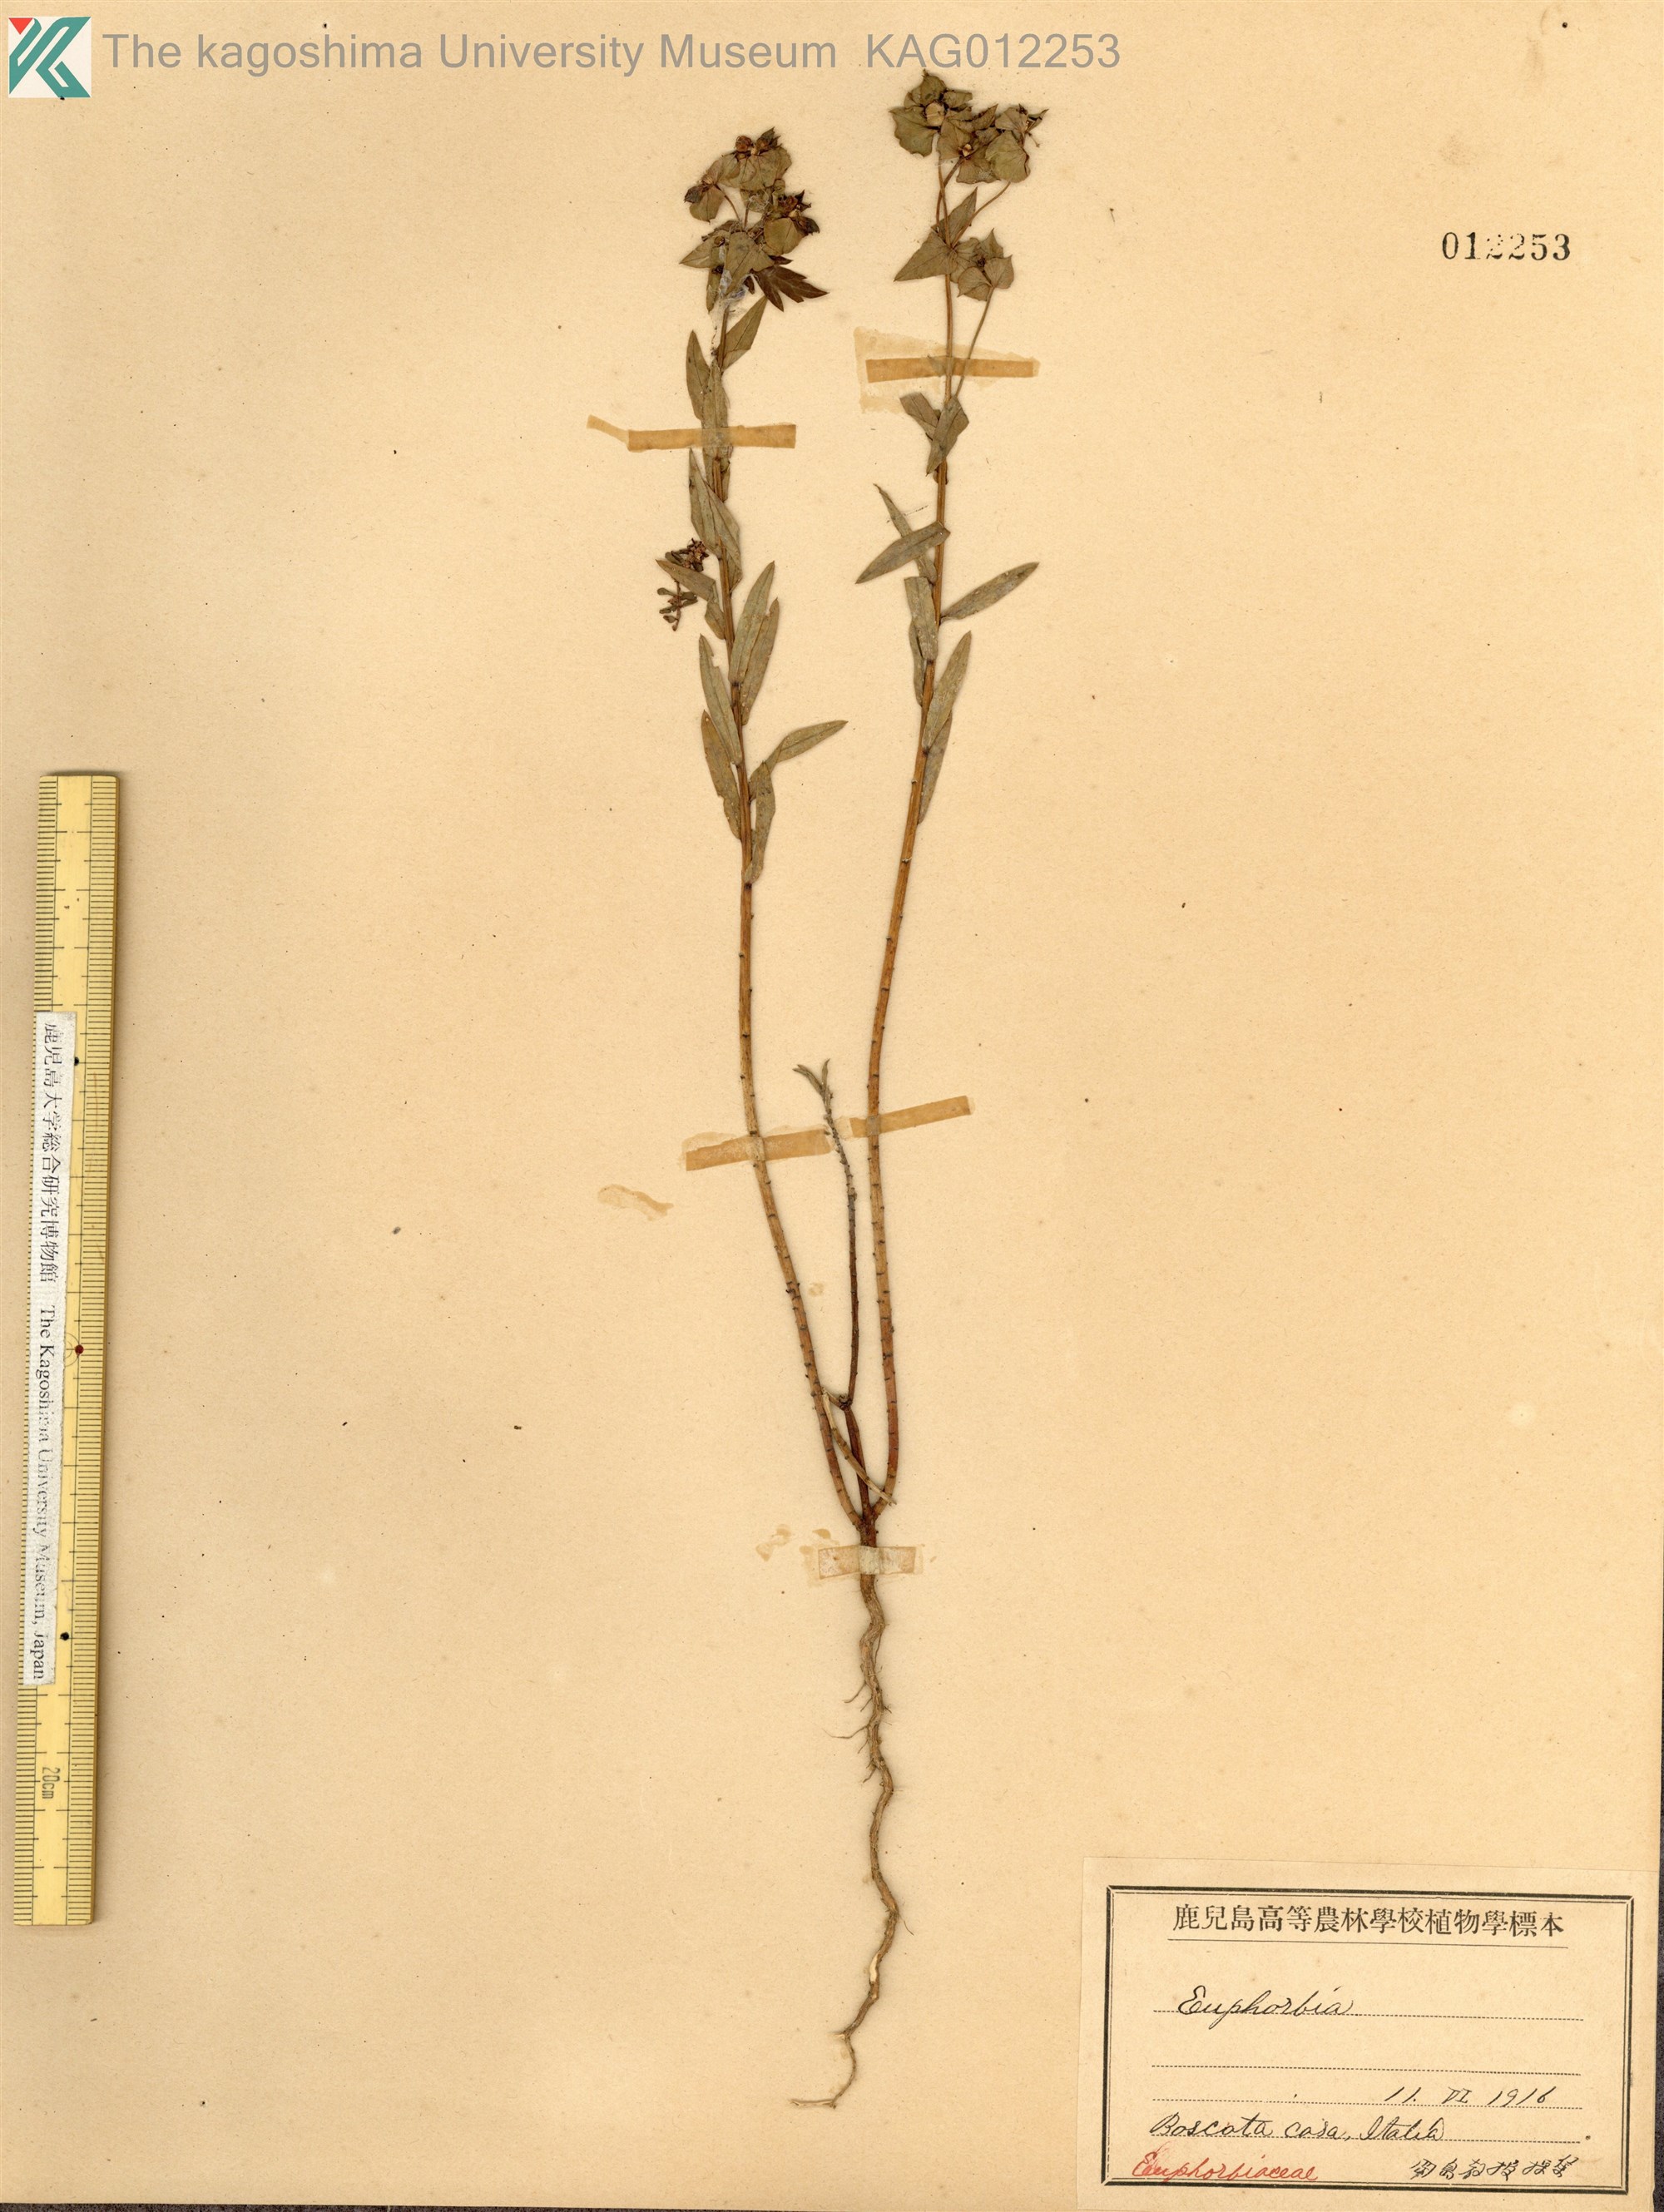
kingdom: Plantae
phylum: Tracheophyta
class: Magnoliopsida
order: Malpighiales
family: Euphorbiaceae
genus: Euphorbia
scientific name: Euphorbia
